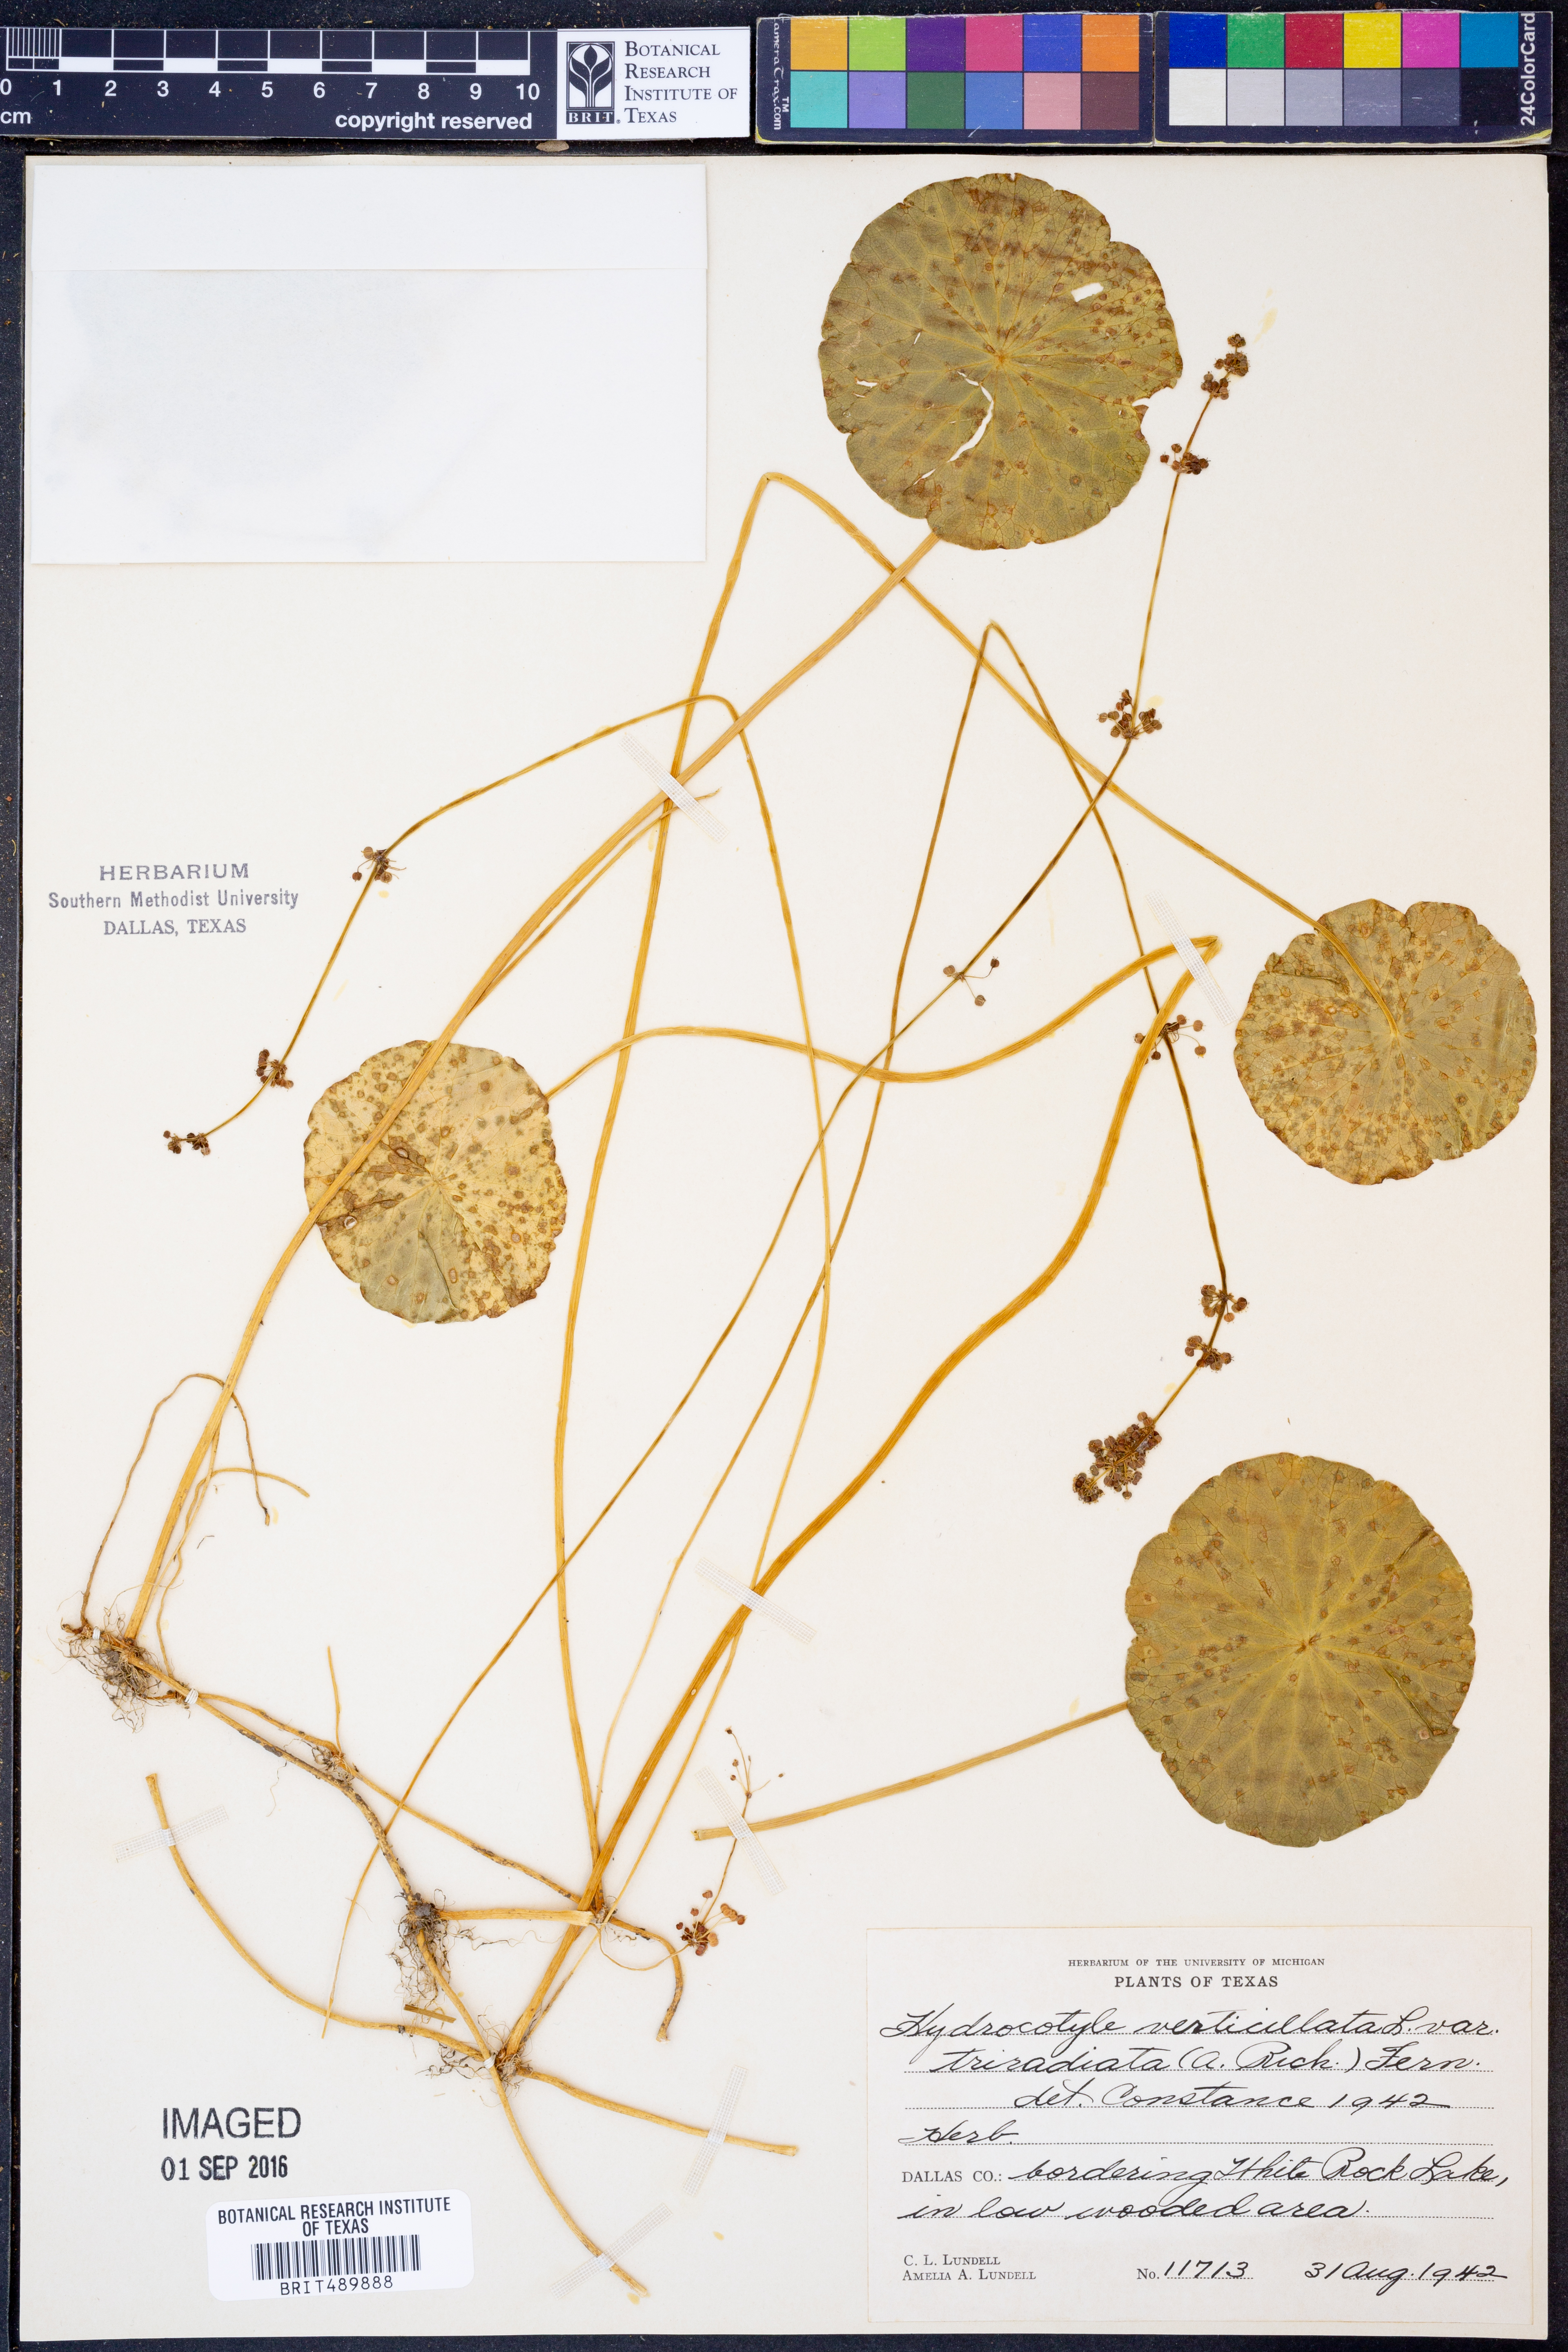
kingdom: Plantae
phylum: Tracheophyta
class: Magnoliopsida
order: Apiales
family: Araliaceae
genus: Hydrocotyle
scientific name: Hydrocotyle bonariensis
